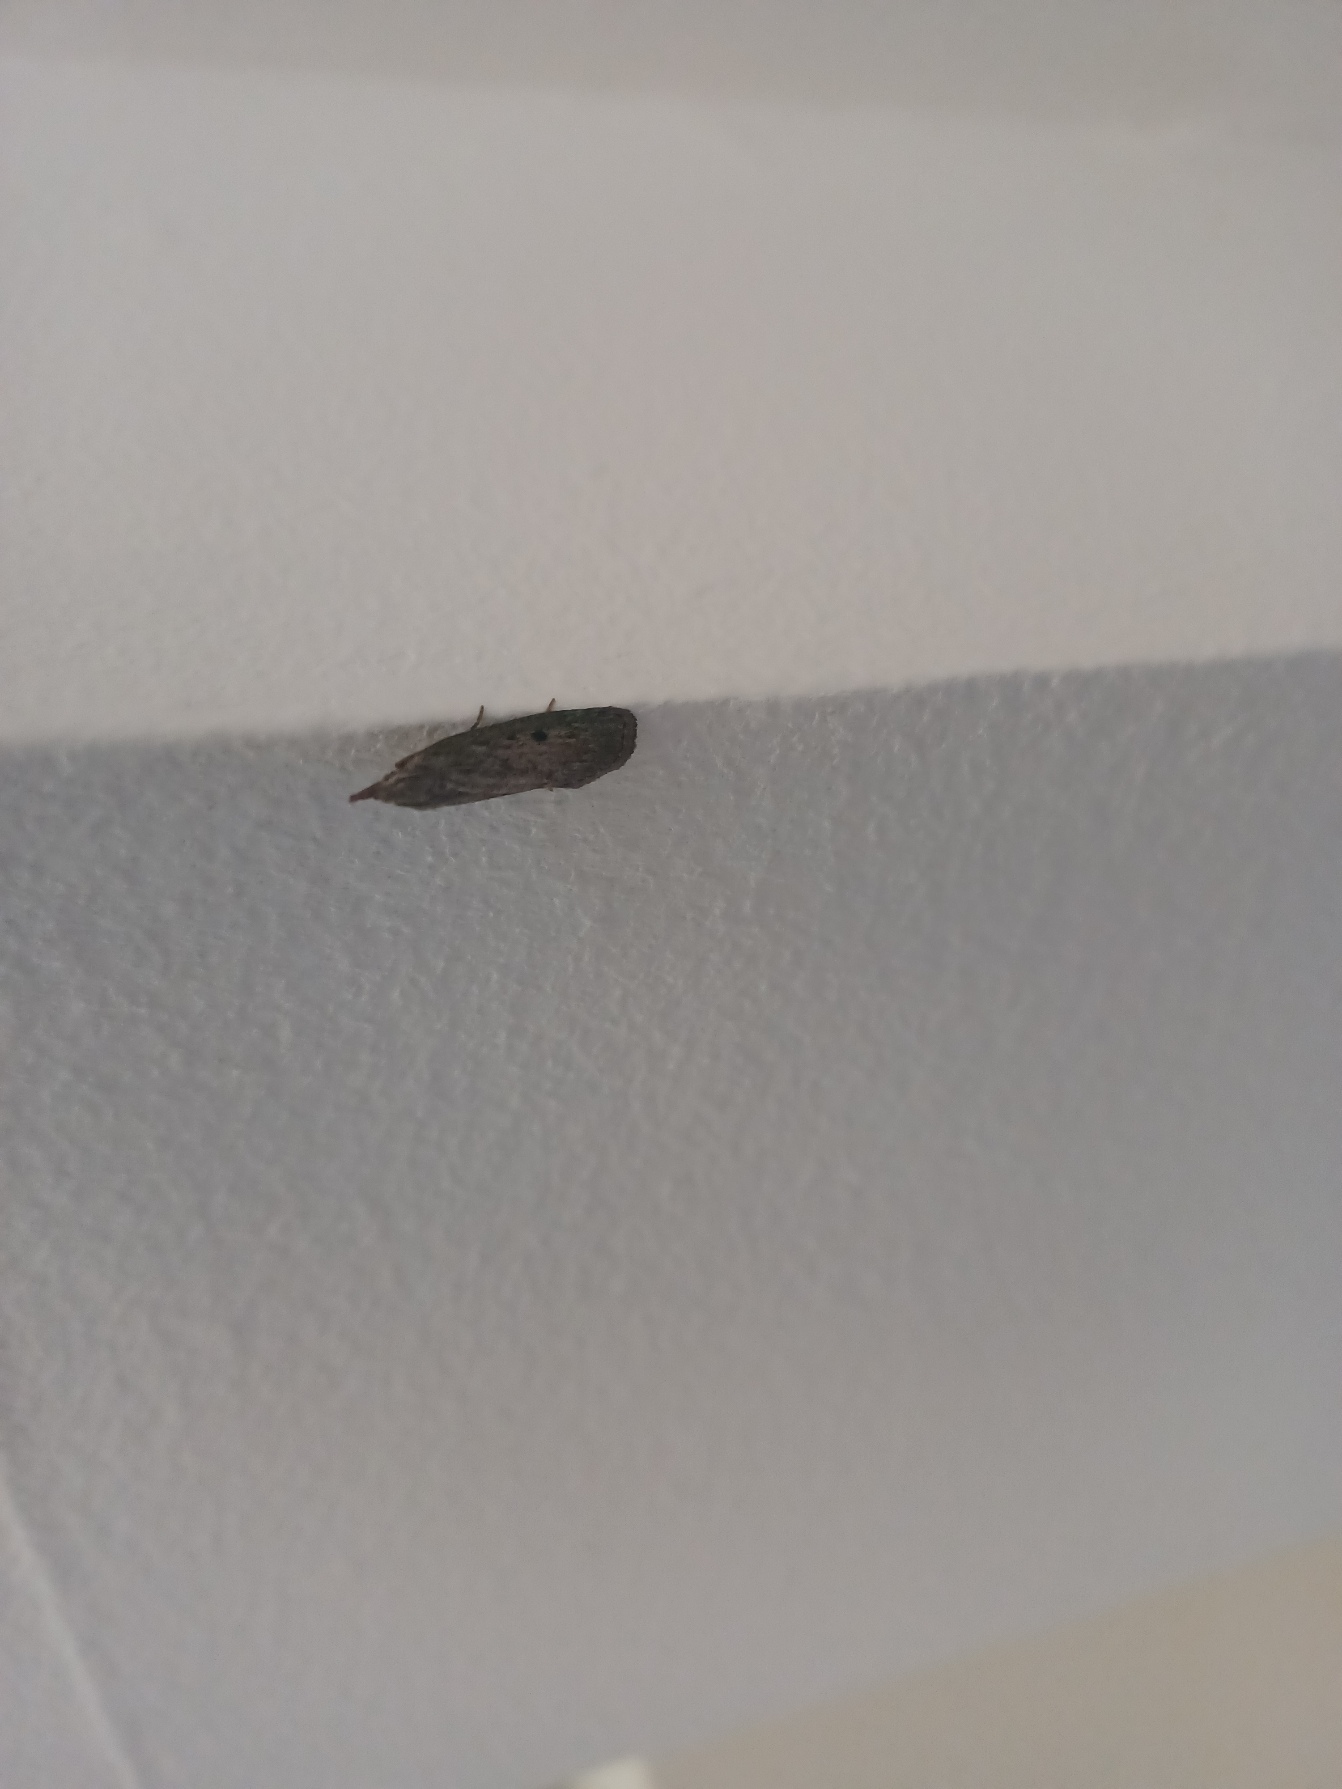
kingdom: Animalia
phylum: Arthropoda
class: Insecta
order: Lepidoptera
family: Pyralidae
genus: Aphomia
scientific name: Aphomia sociella
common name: Humlevoksmøl
